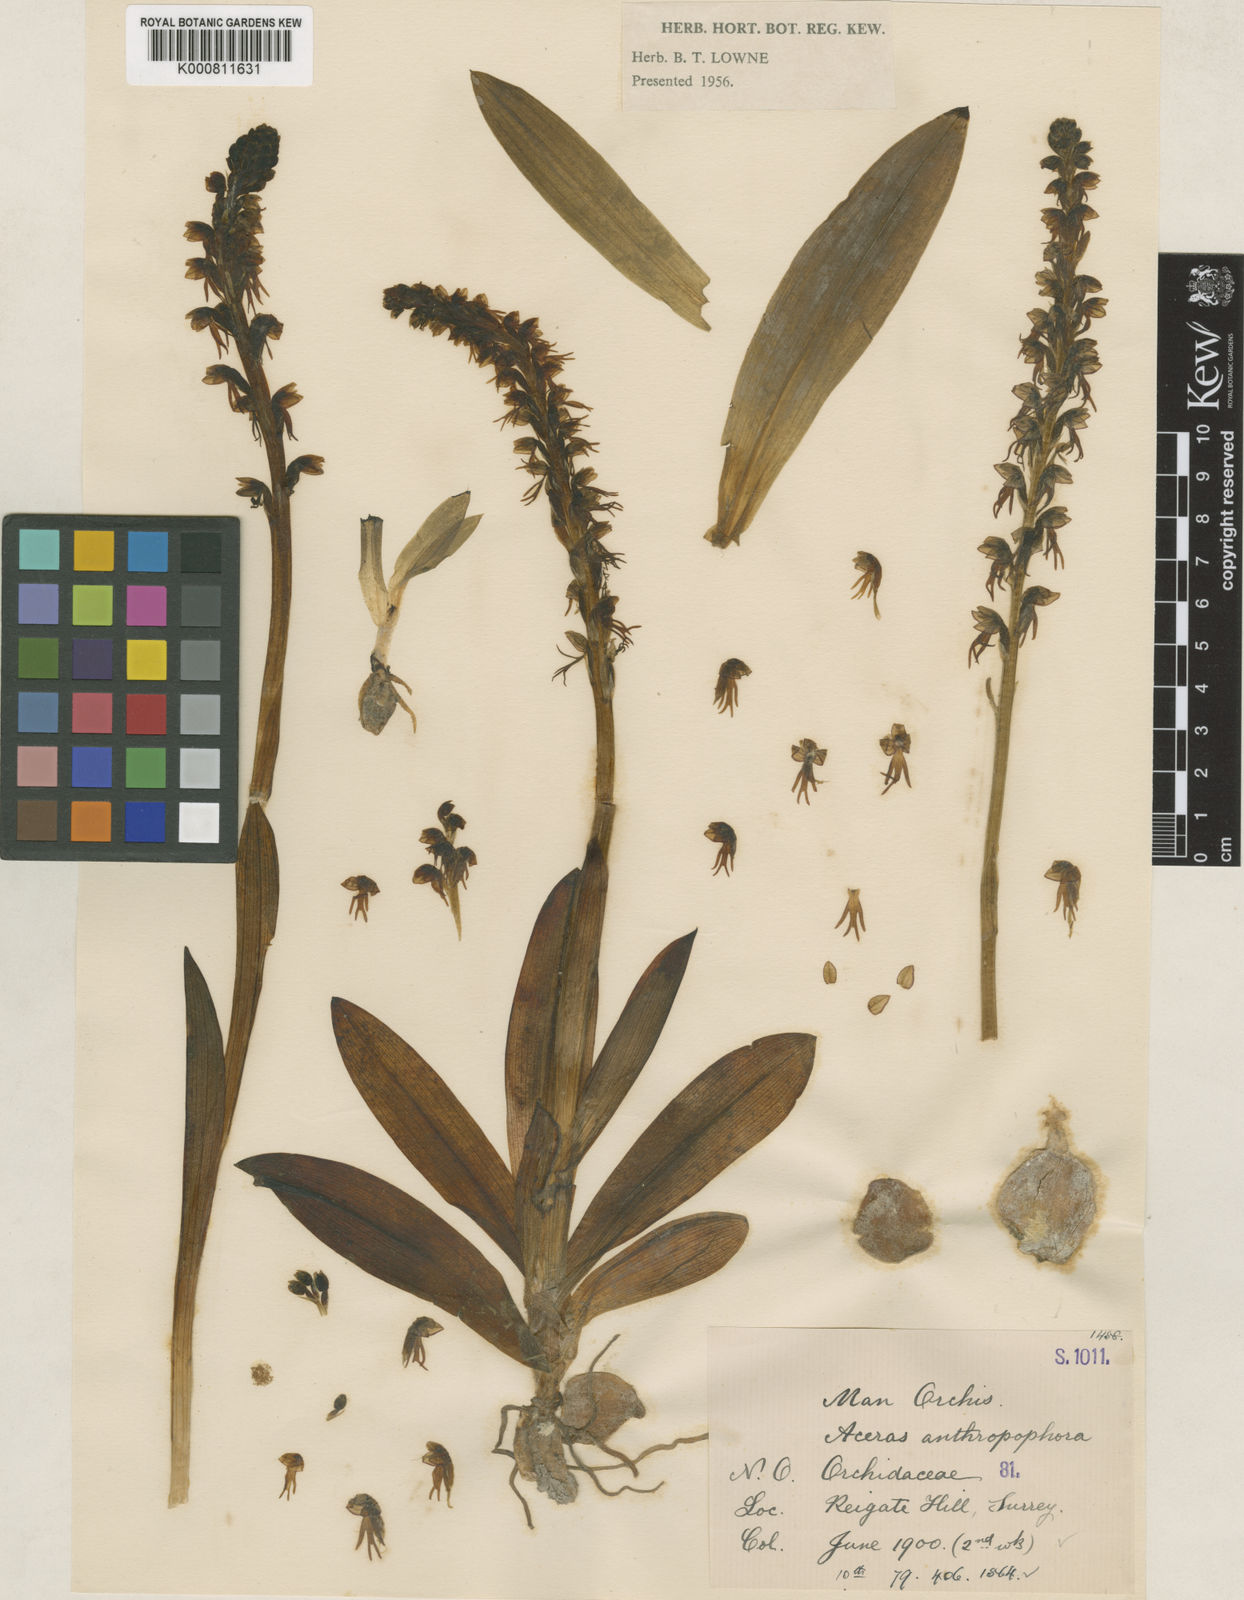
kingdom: Plantae
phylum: Tracheophyta
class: Liliopsida
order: Asparagales
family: Orchidaceae
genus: Orchis
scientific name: Orchis
